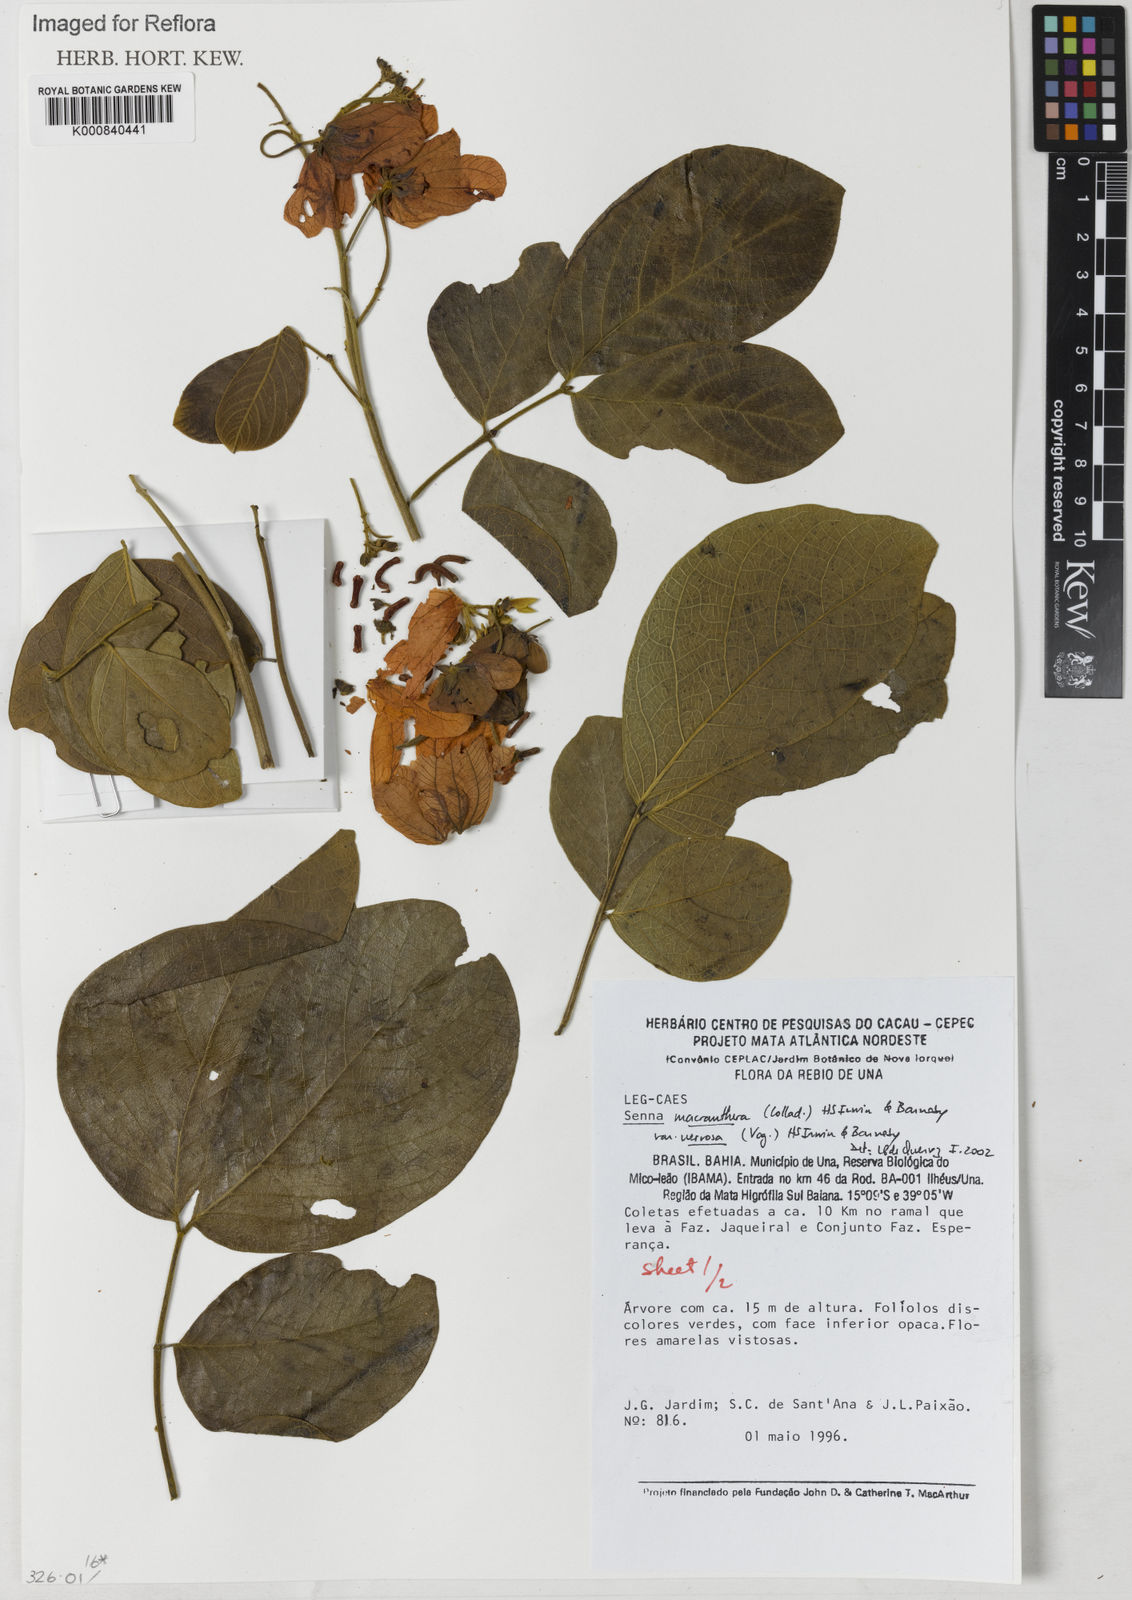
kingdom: Plantae
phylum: Tracheophyta
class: Magnoliopsida
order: Fabales
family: Fabaceae
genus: Senna
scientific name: Senna macranthera
